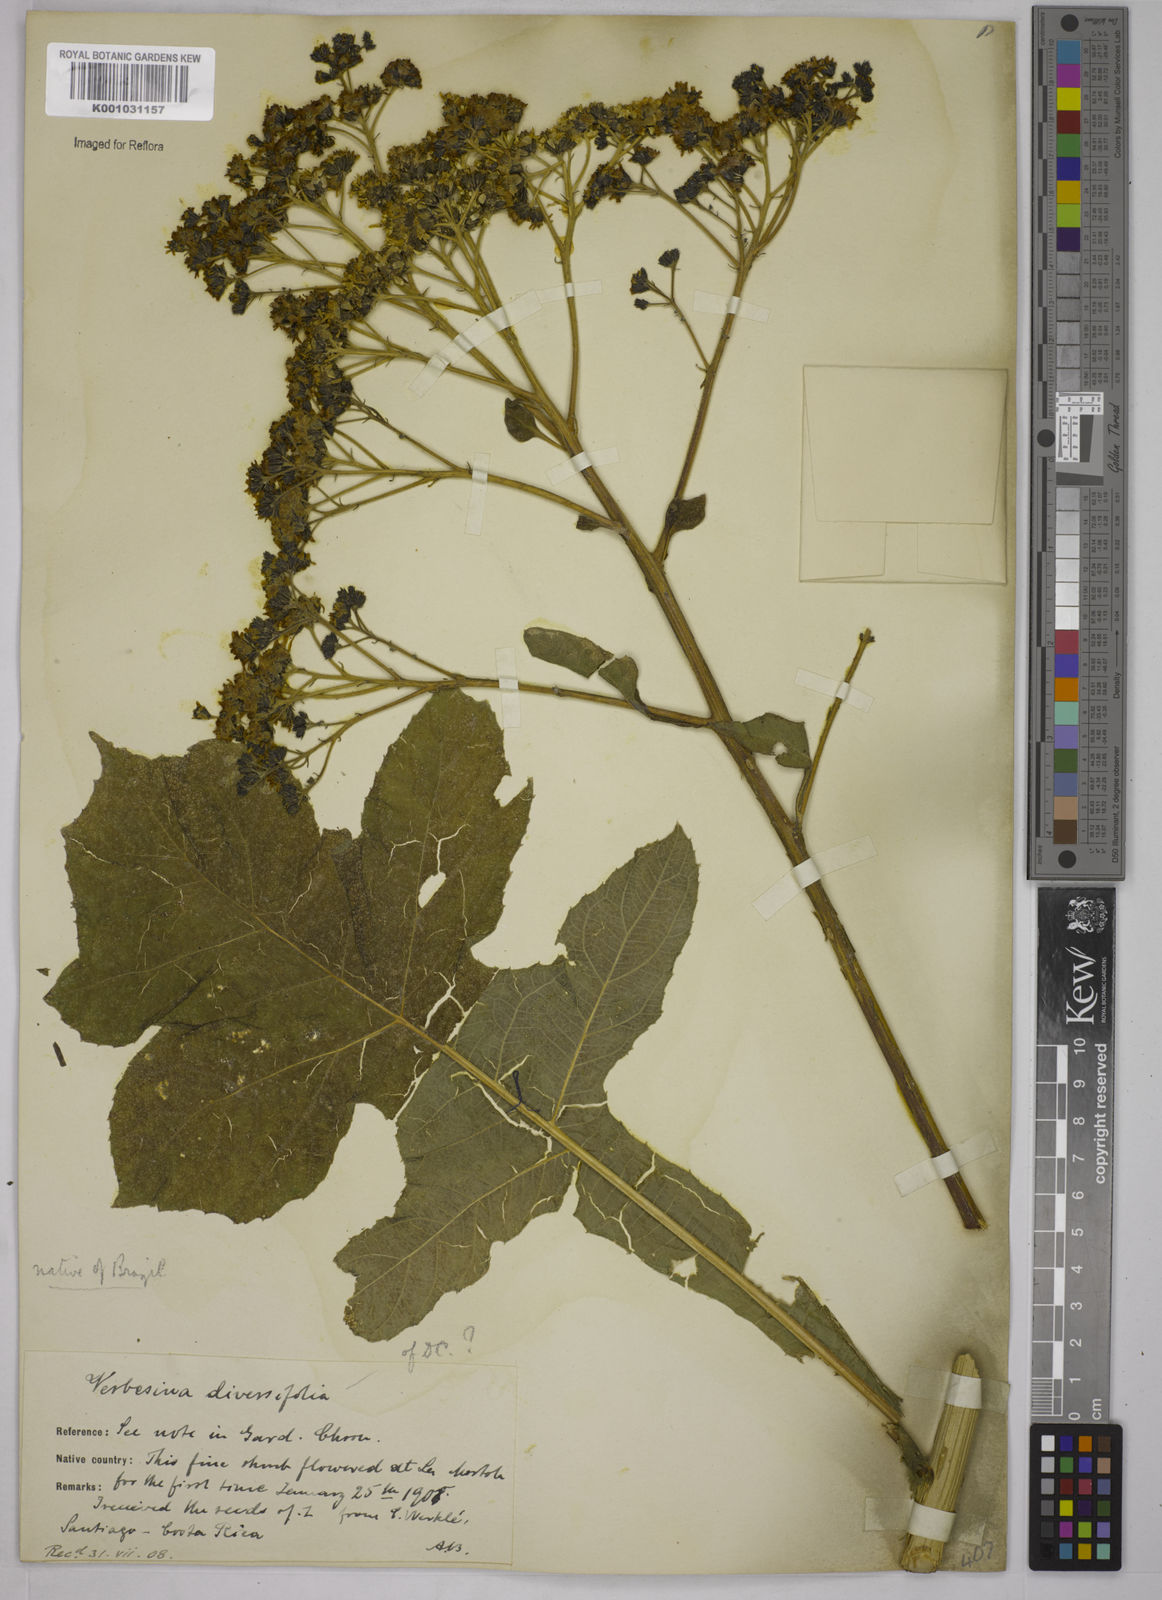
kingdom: Plantae
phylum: Tracheophyta
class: Magnoliopsida
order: Asterales
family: Asteraceae
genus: Verbesina
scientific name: Verbesina macrophylla
